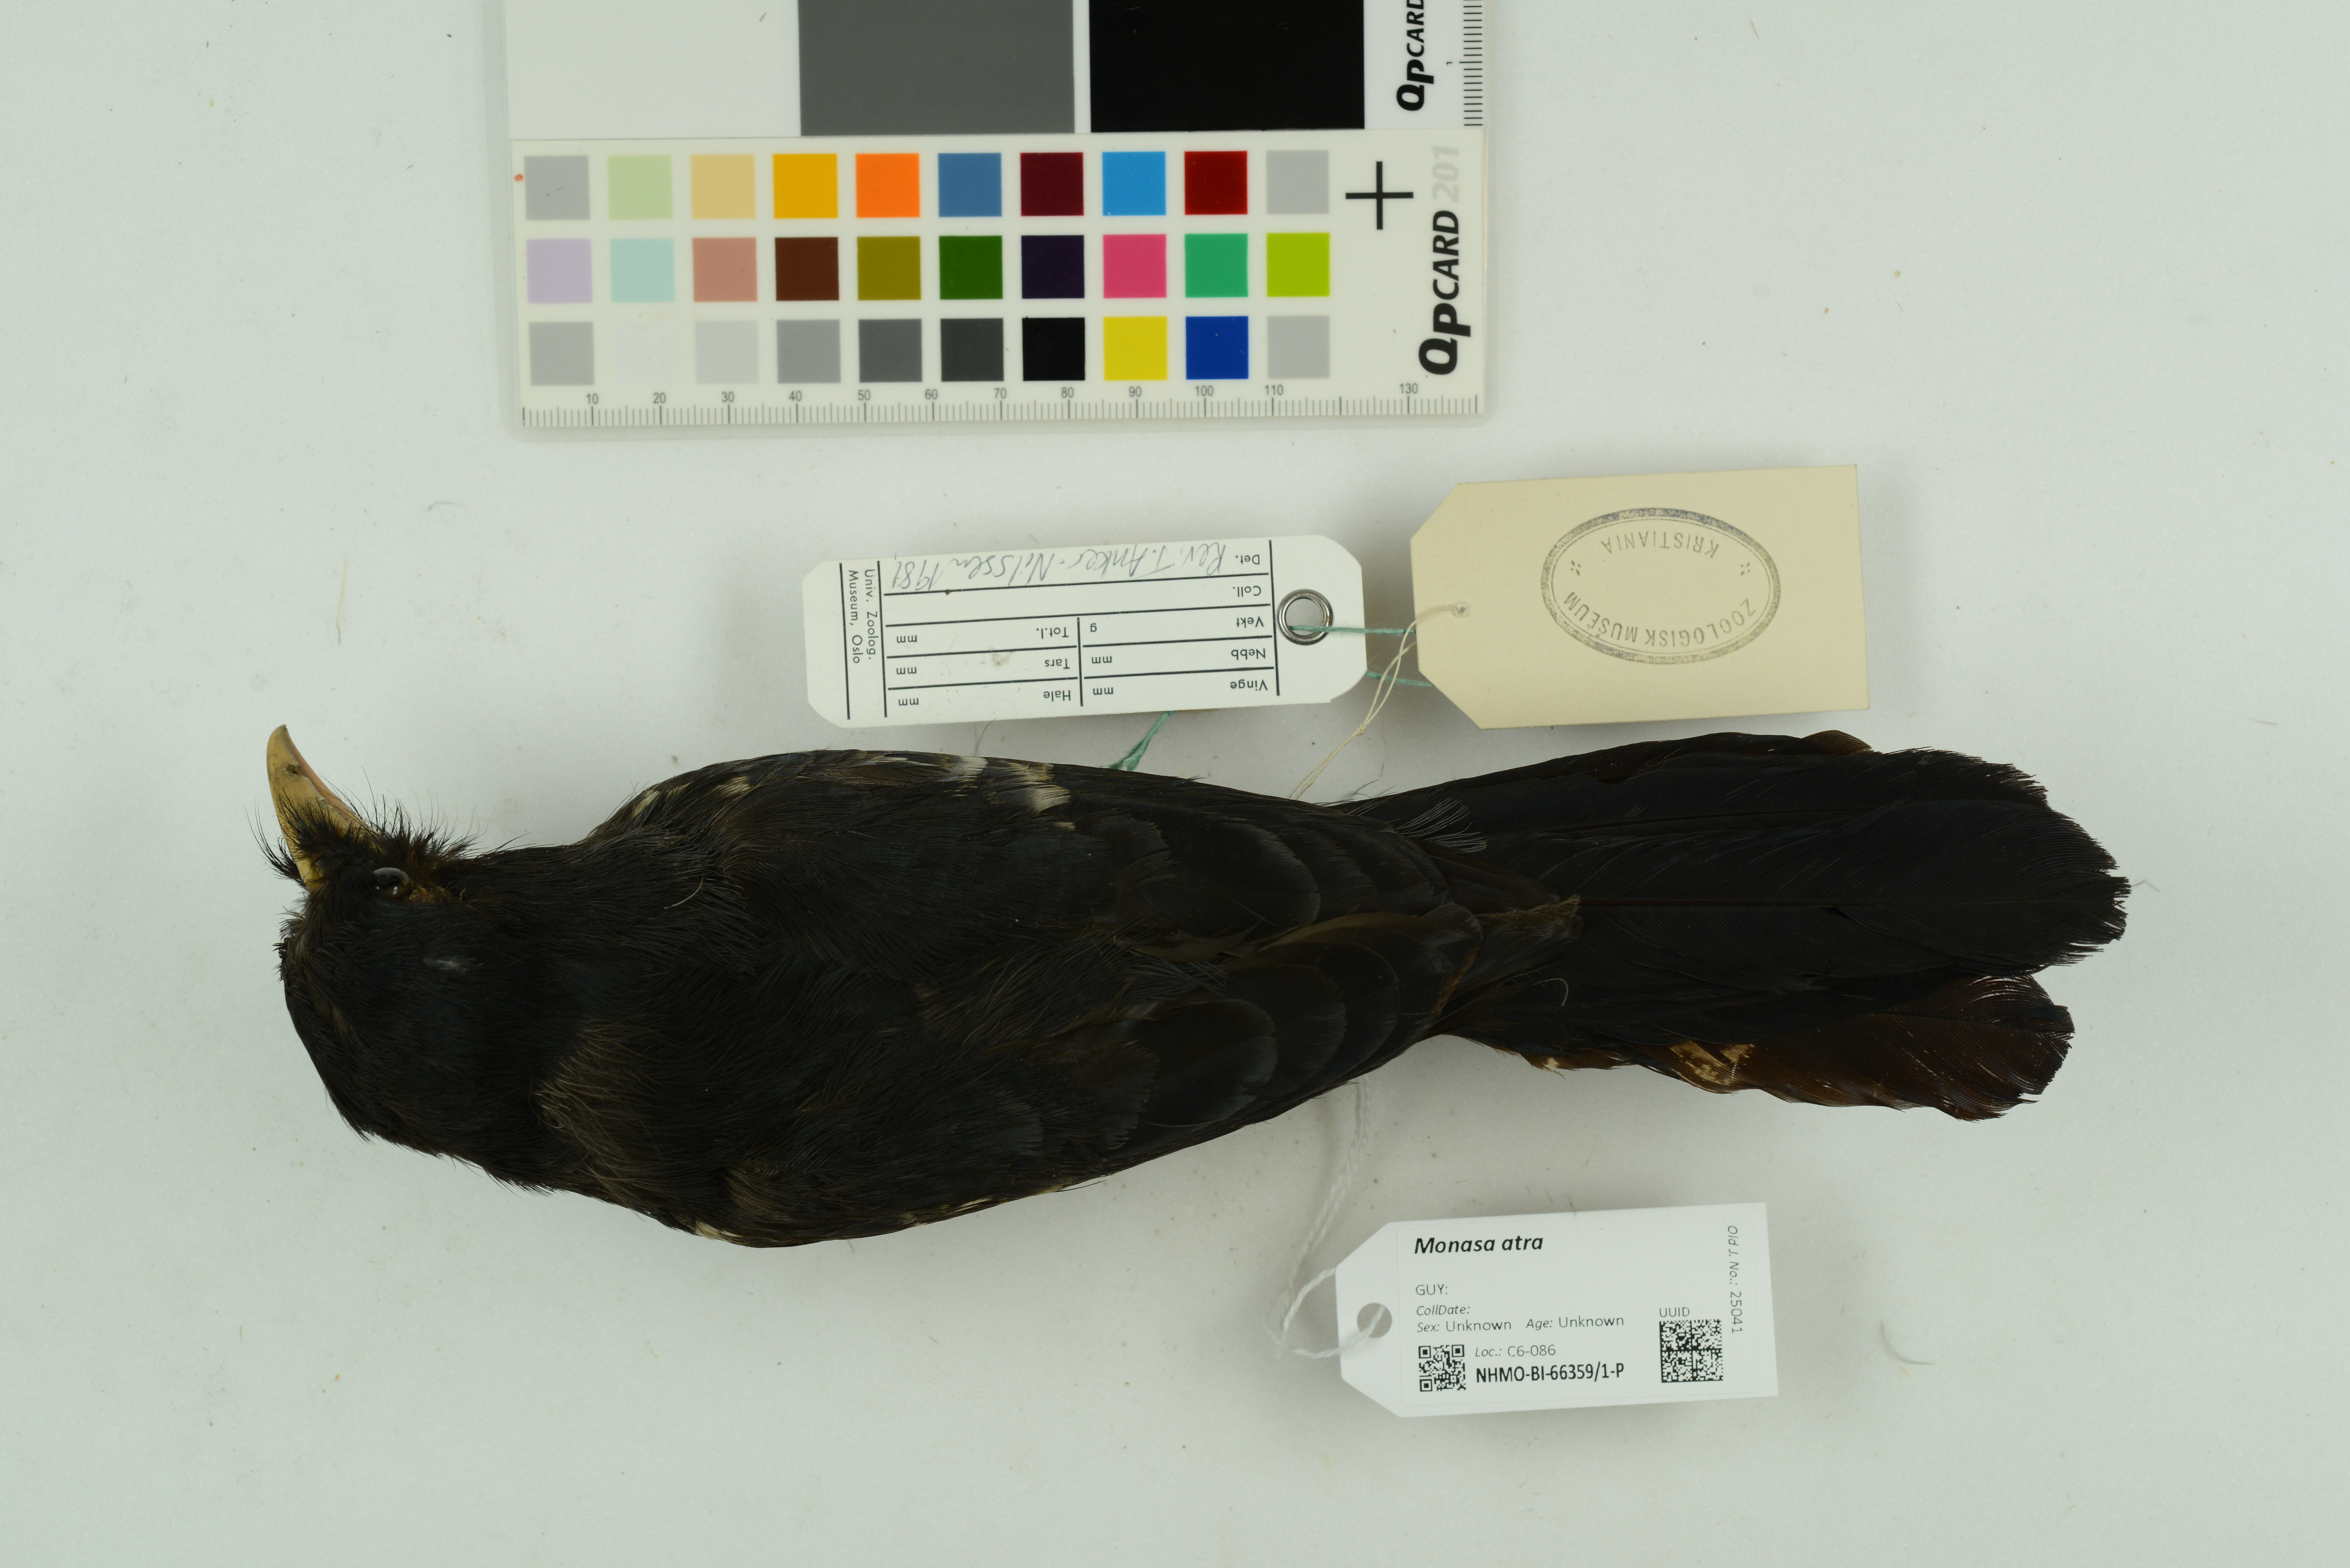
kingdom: Animalia
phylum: Chordata
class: Aves
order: Piciformes
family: Bucconidae
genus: Monasa
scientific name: Monasa atra
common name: Black nunbird
